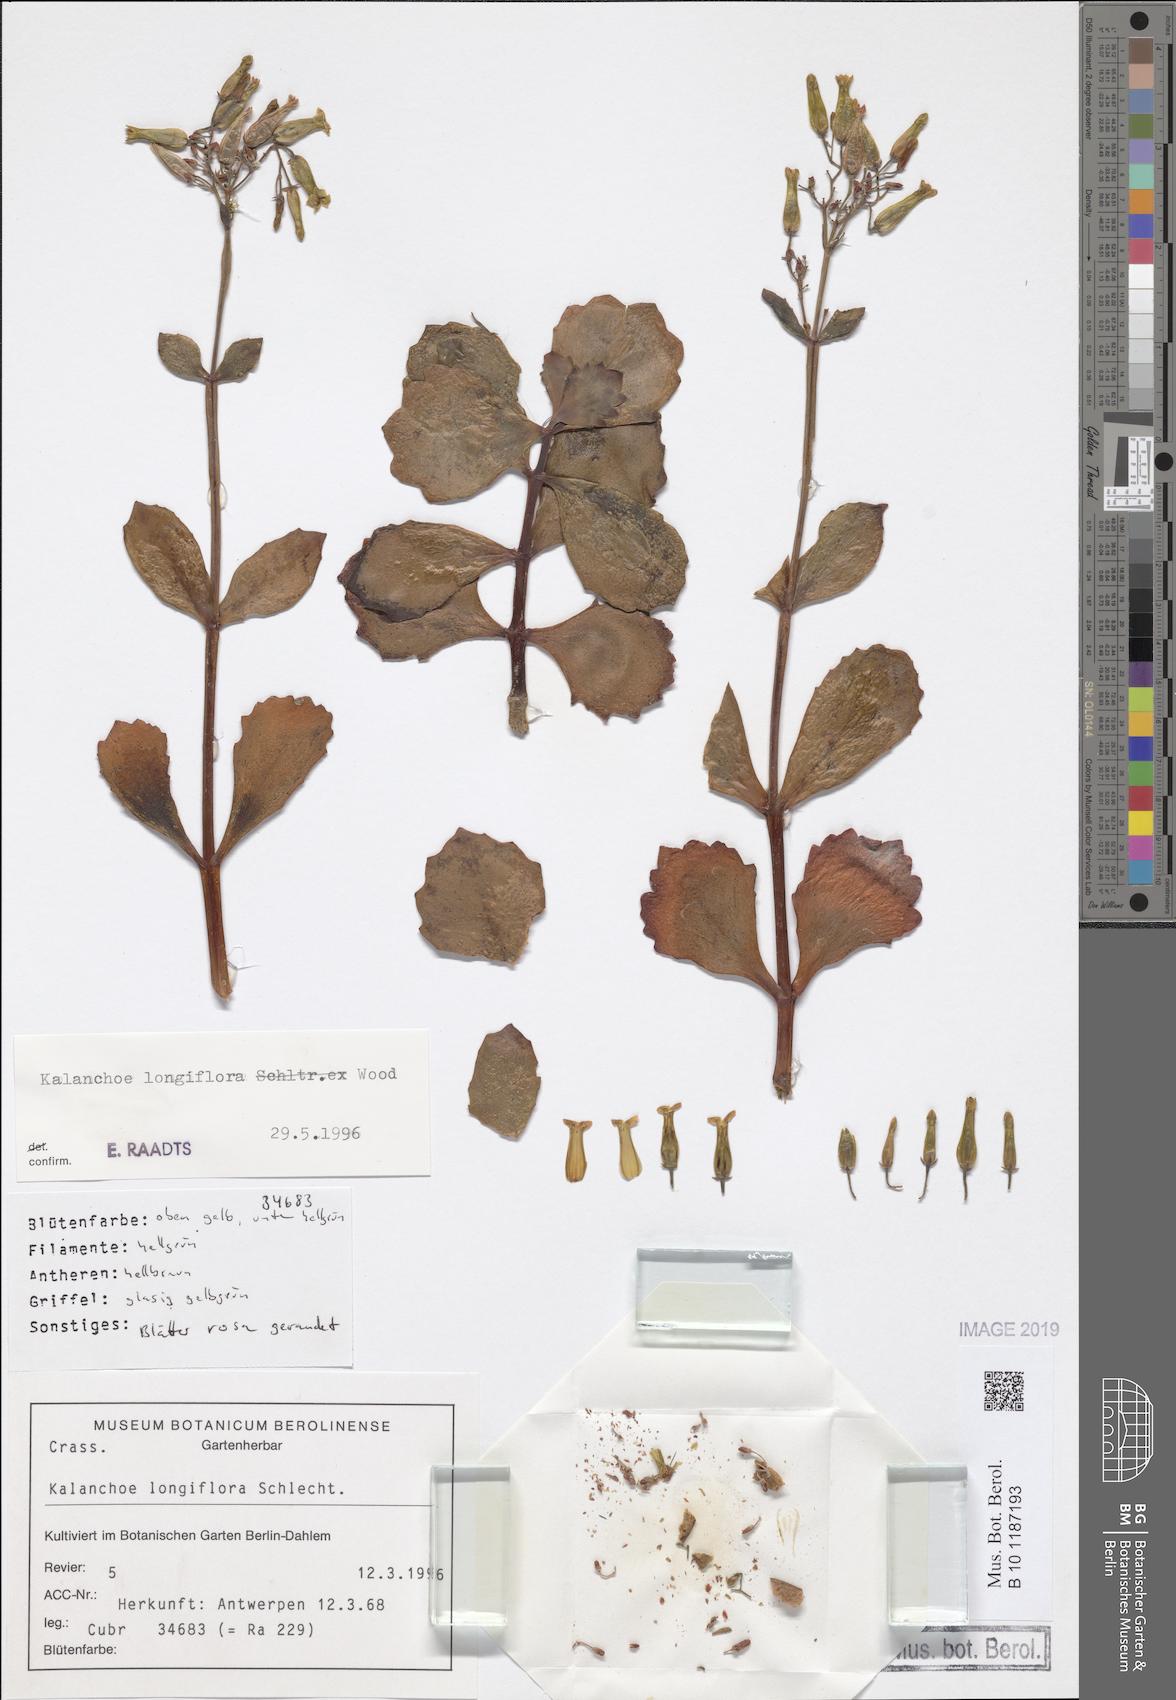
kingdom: Plantae
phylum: Tracheophyta
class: Magnoliopsida
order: Saxifragales
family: Crassulaceae
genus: Kalanchoe
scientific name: Kalanchoe longiflora
